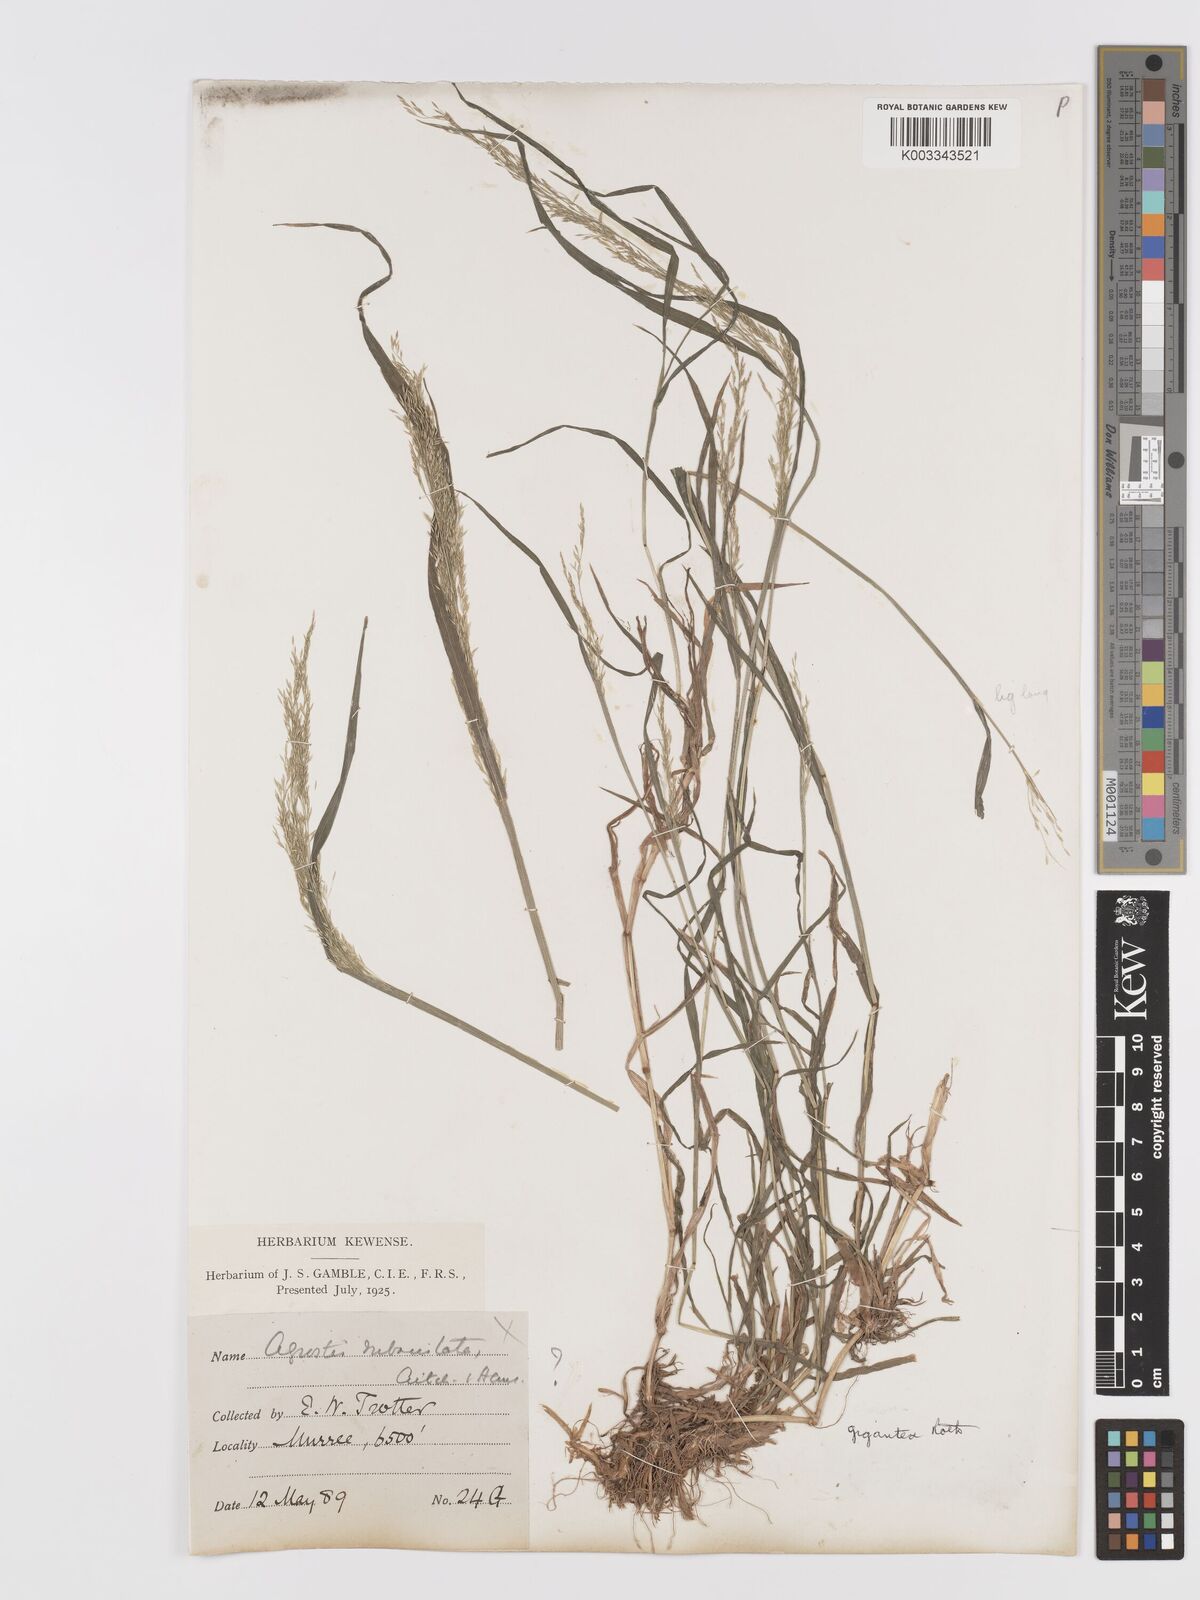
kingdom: Plantae
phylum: Tracheophyta
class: Liliopsida
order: Poales
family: Poaceae
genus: Agrostis
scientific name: Agrostis gigantea
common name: Black bent
